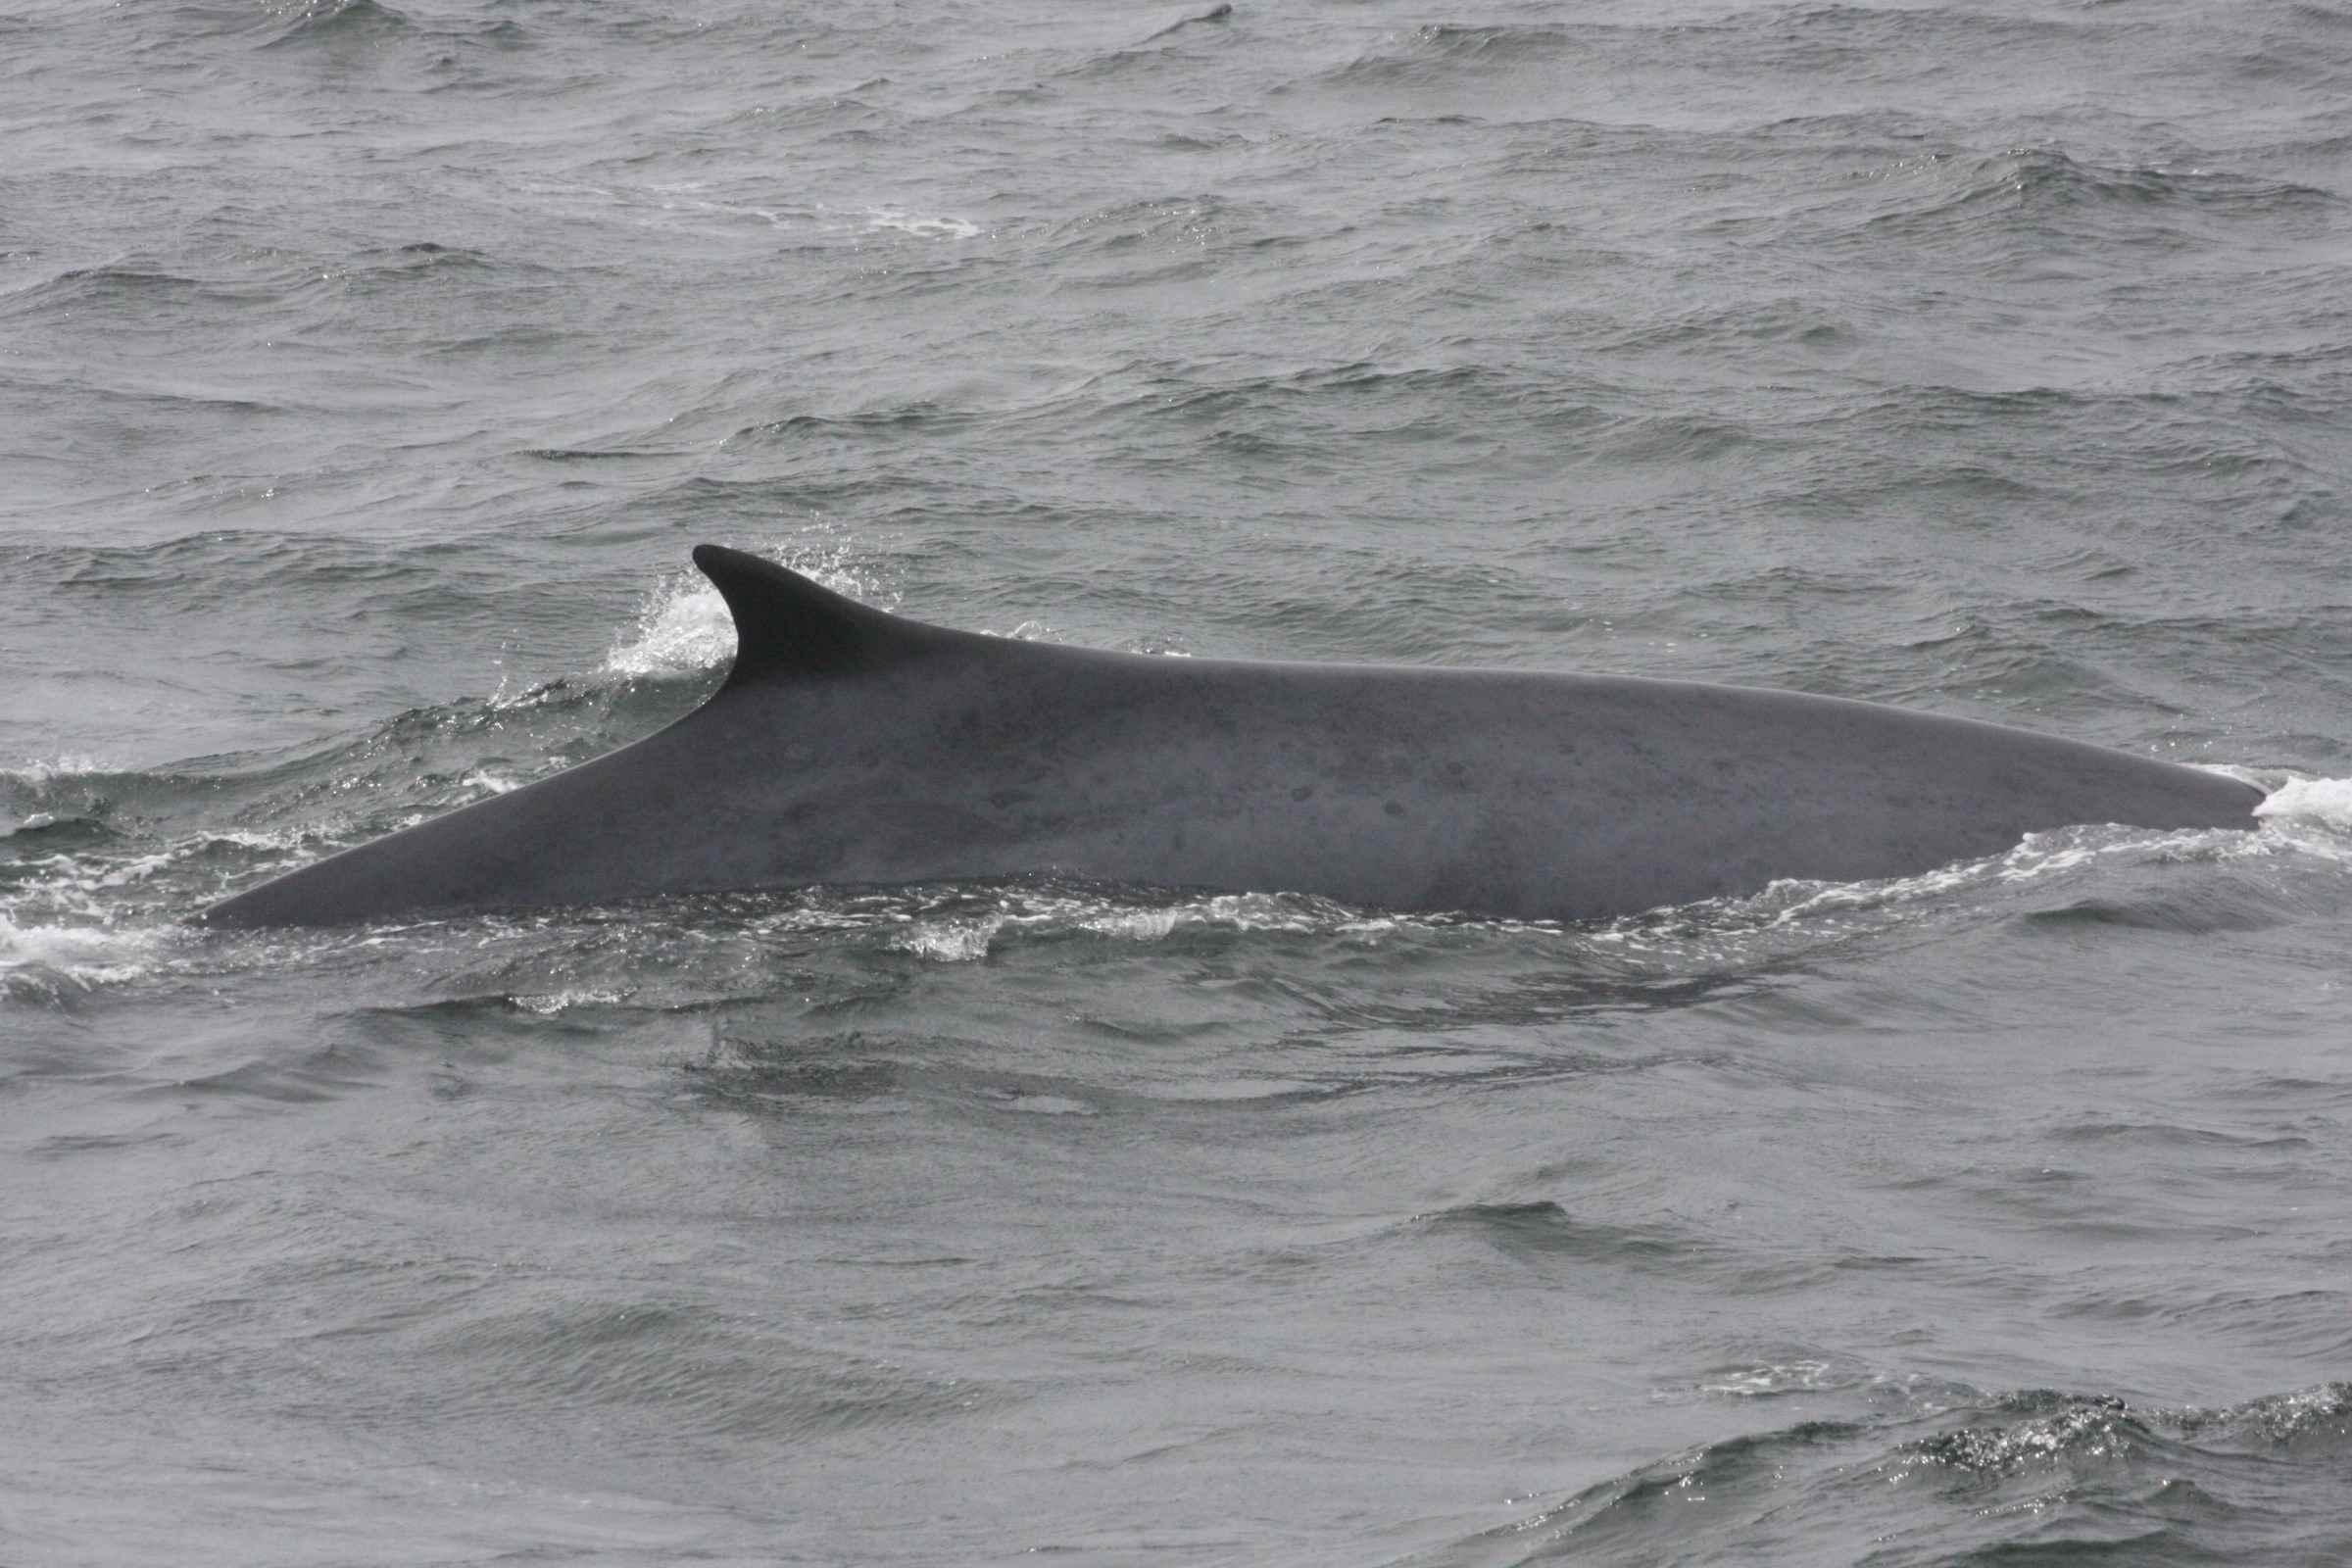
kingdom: Animalia
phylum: Chordata
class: Mammalia
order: Cetacea
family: Balaenopteridae
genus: Balaenoptera
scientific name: Balaenoptera physalus
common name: Fin whale
